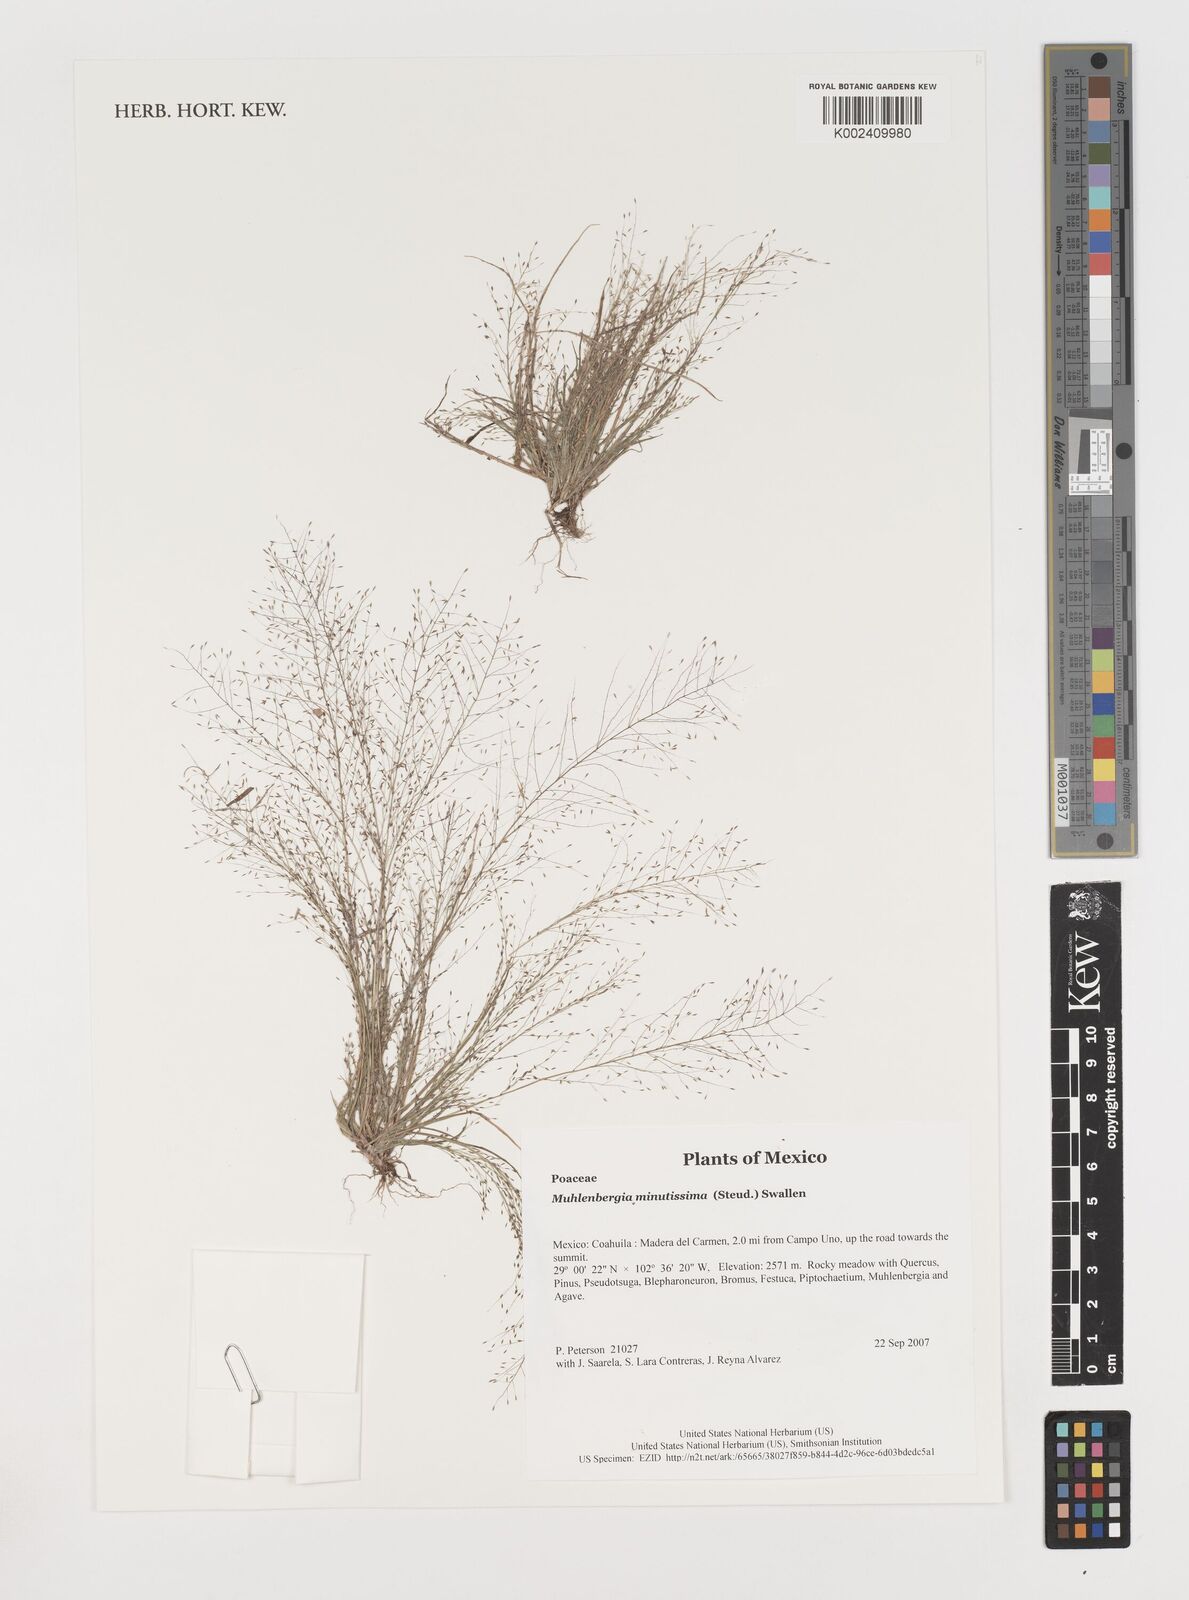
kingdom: Plantae
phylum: Tracheophyta
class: Liliopsida
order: Poales
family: Poaceae
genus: Muhlenbergia
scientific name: Muhlenbergia minutissima
